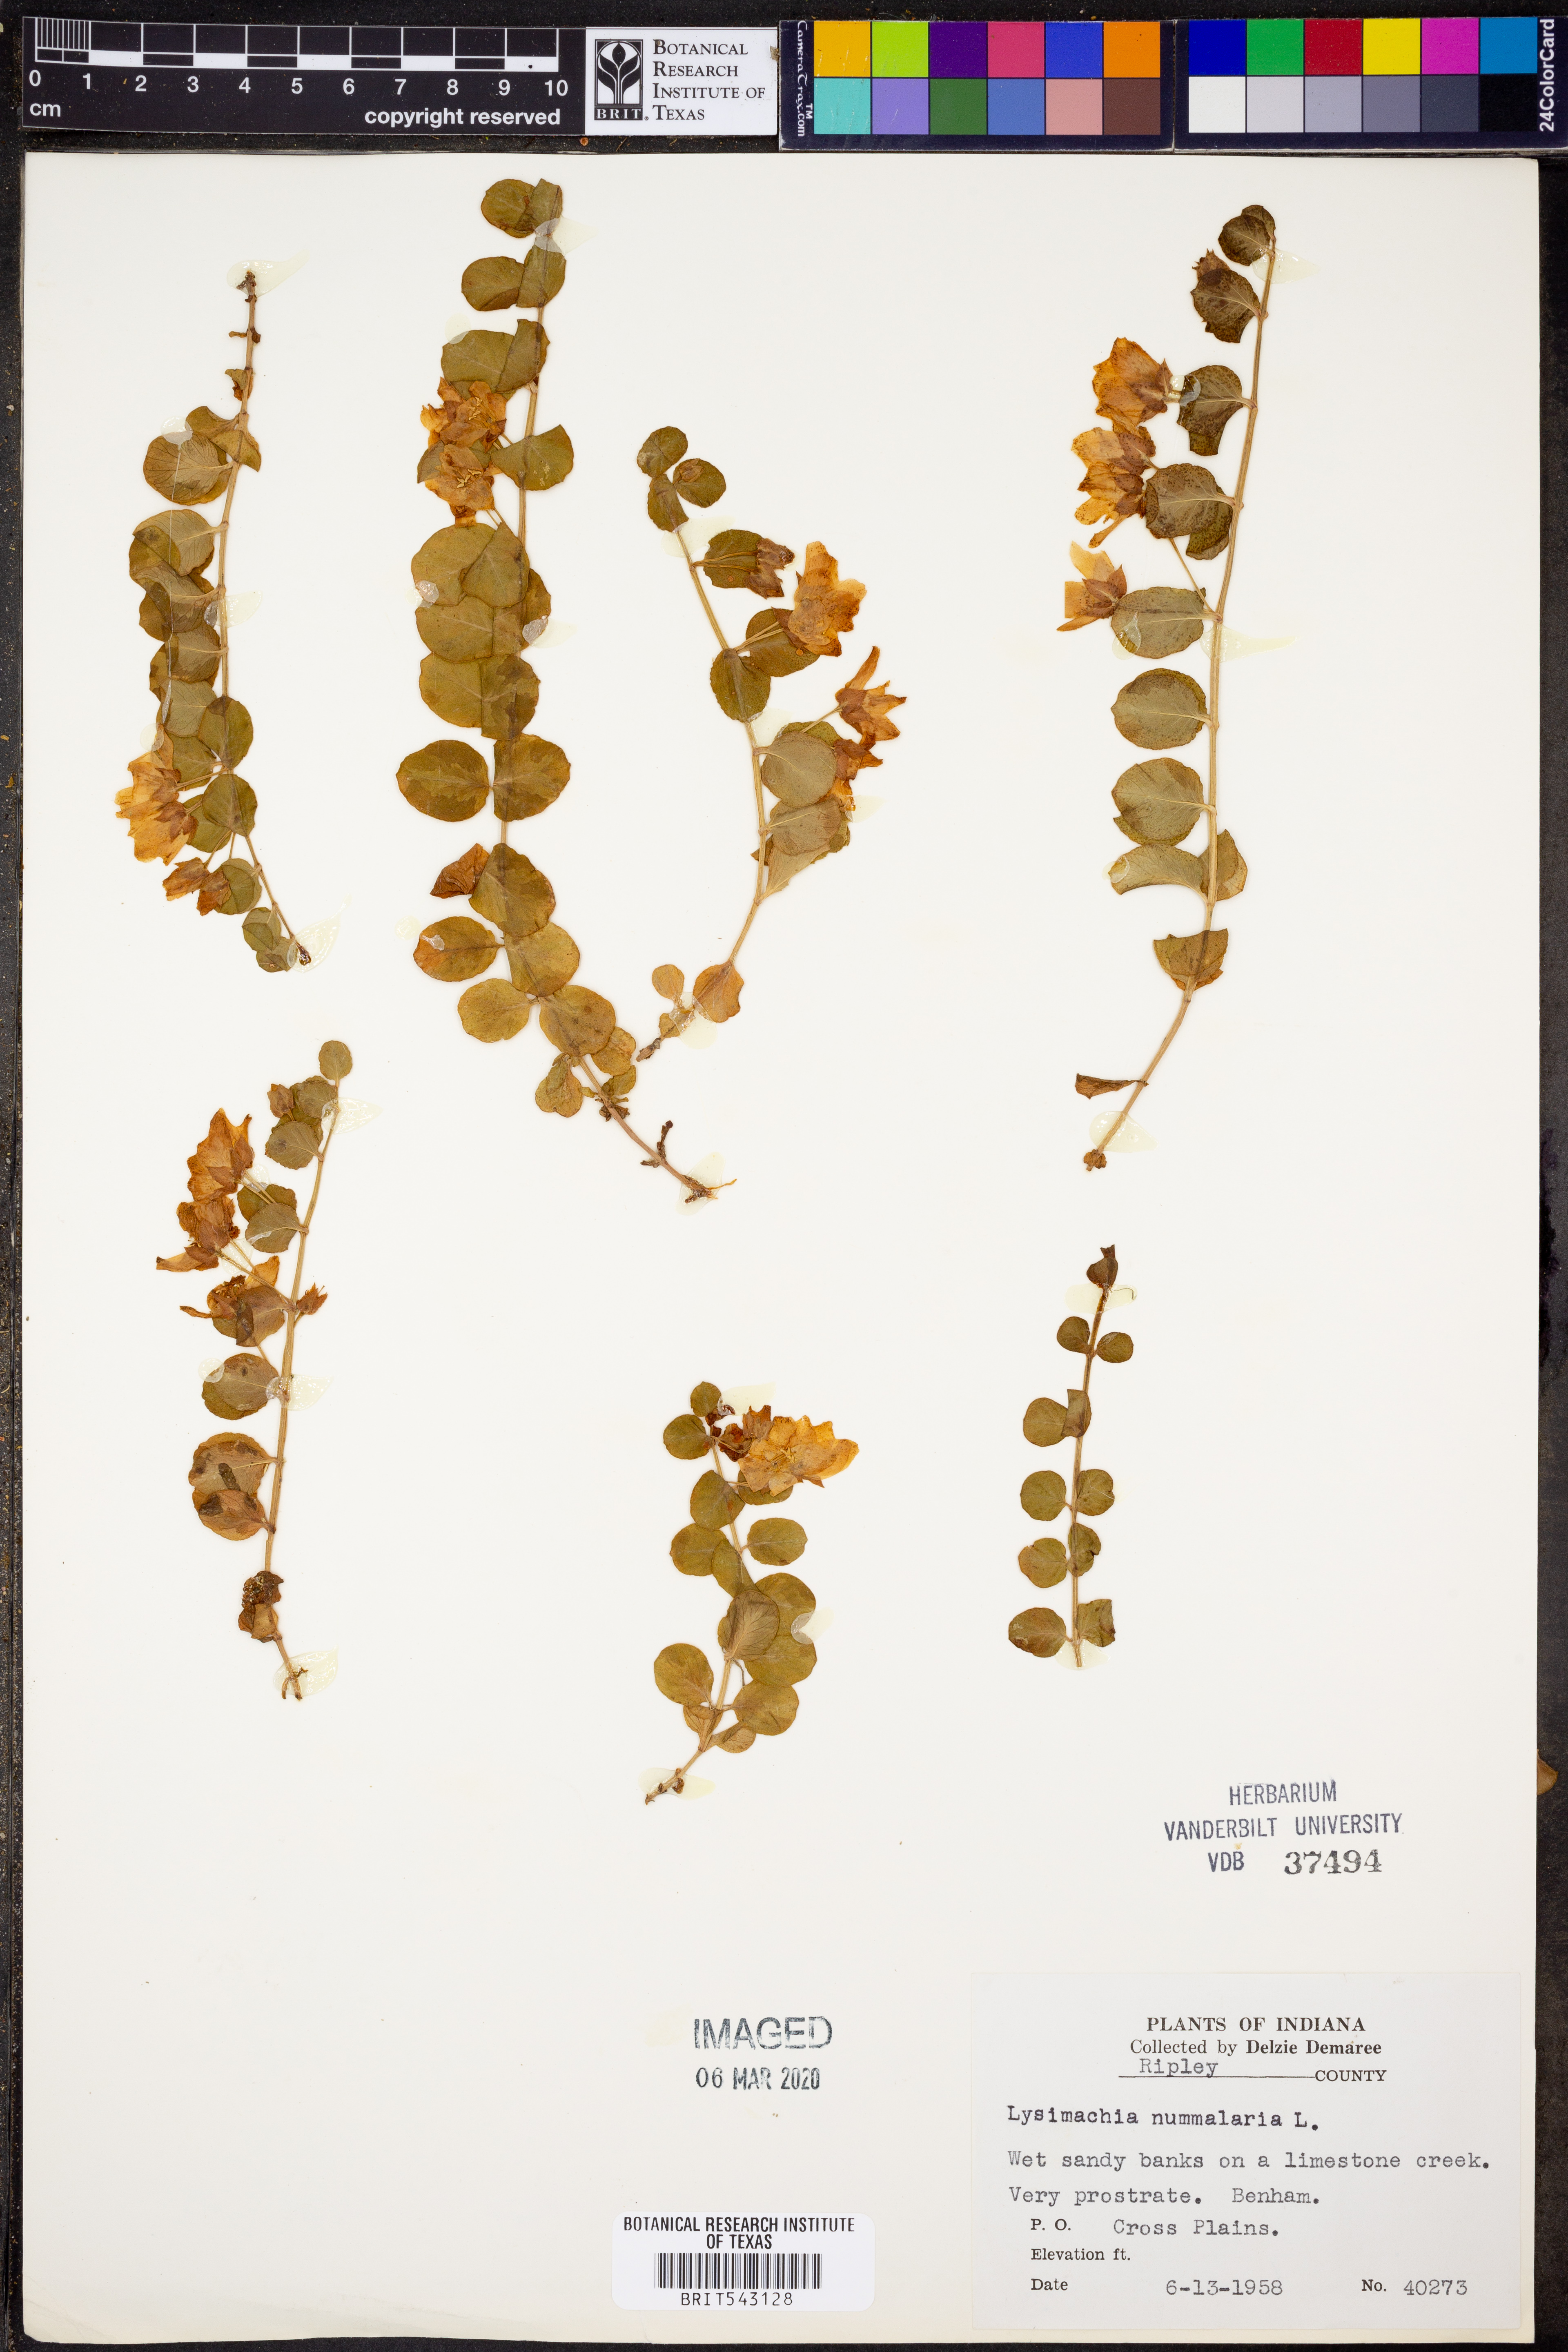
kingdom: Plantae
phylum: Tracheophyta
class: Magnoliopsida
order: Ericales
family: Primulaceae
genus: Lysimachia
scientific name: Lysimachia nummularia
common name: Moneywort
